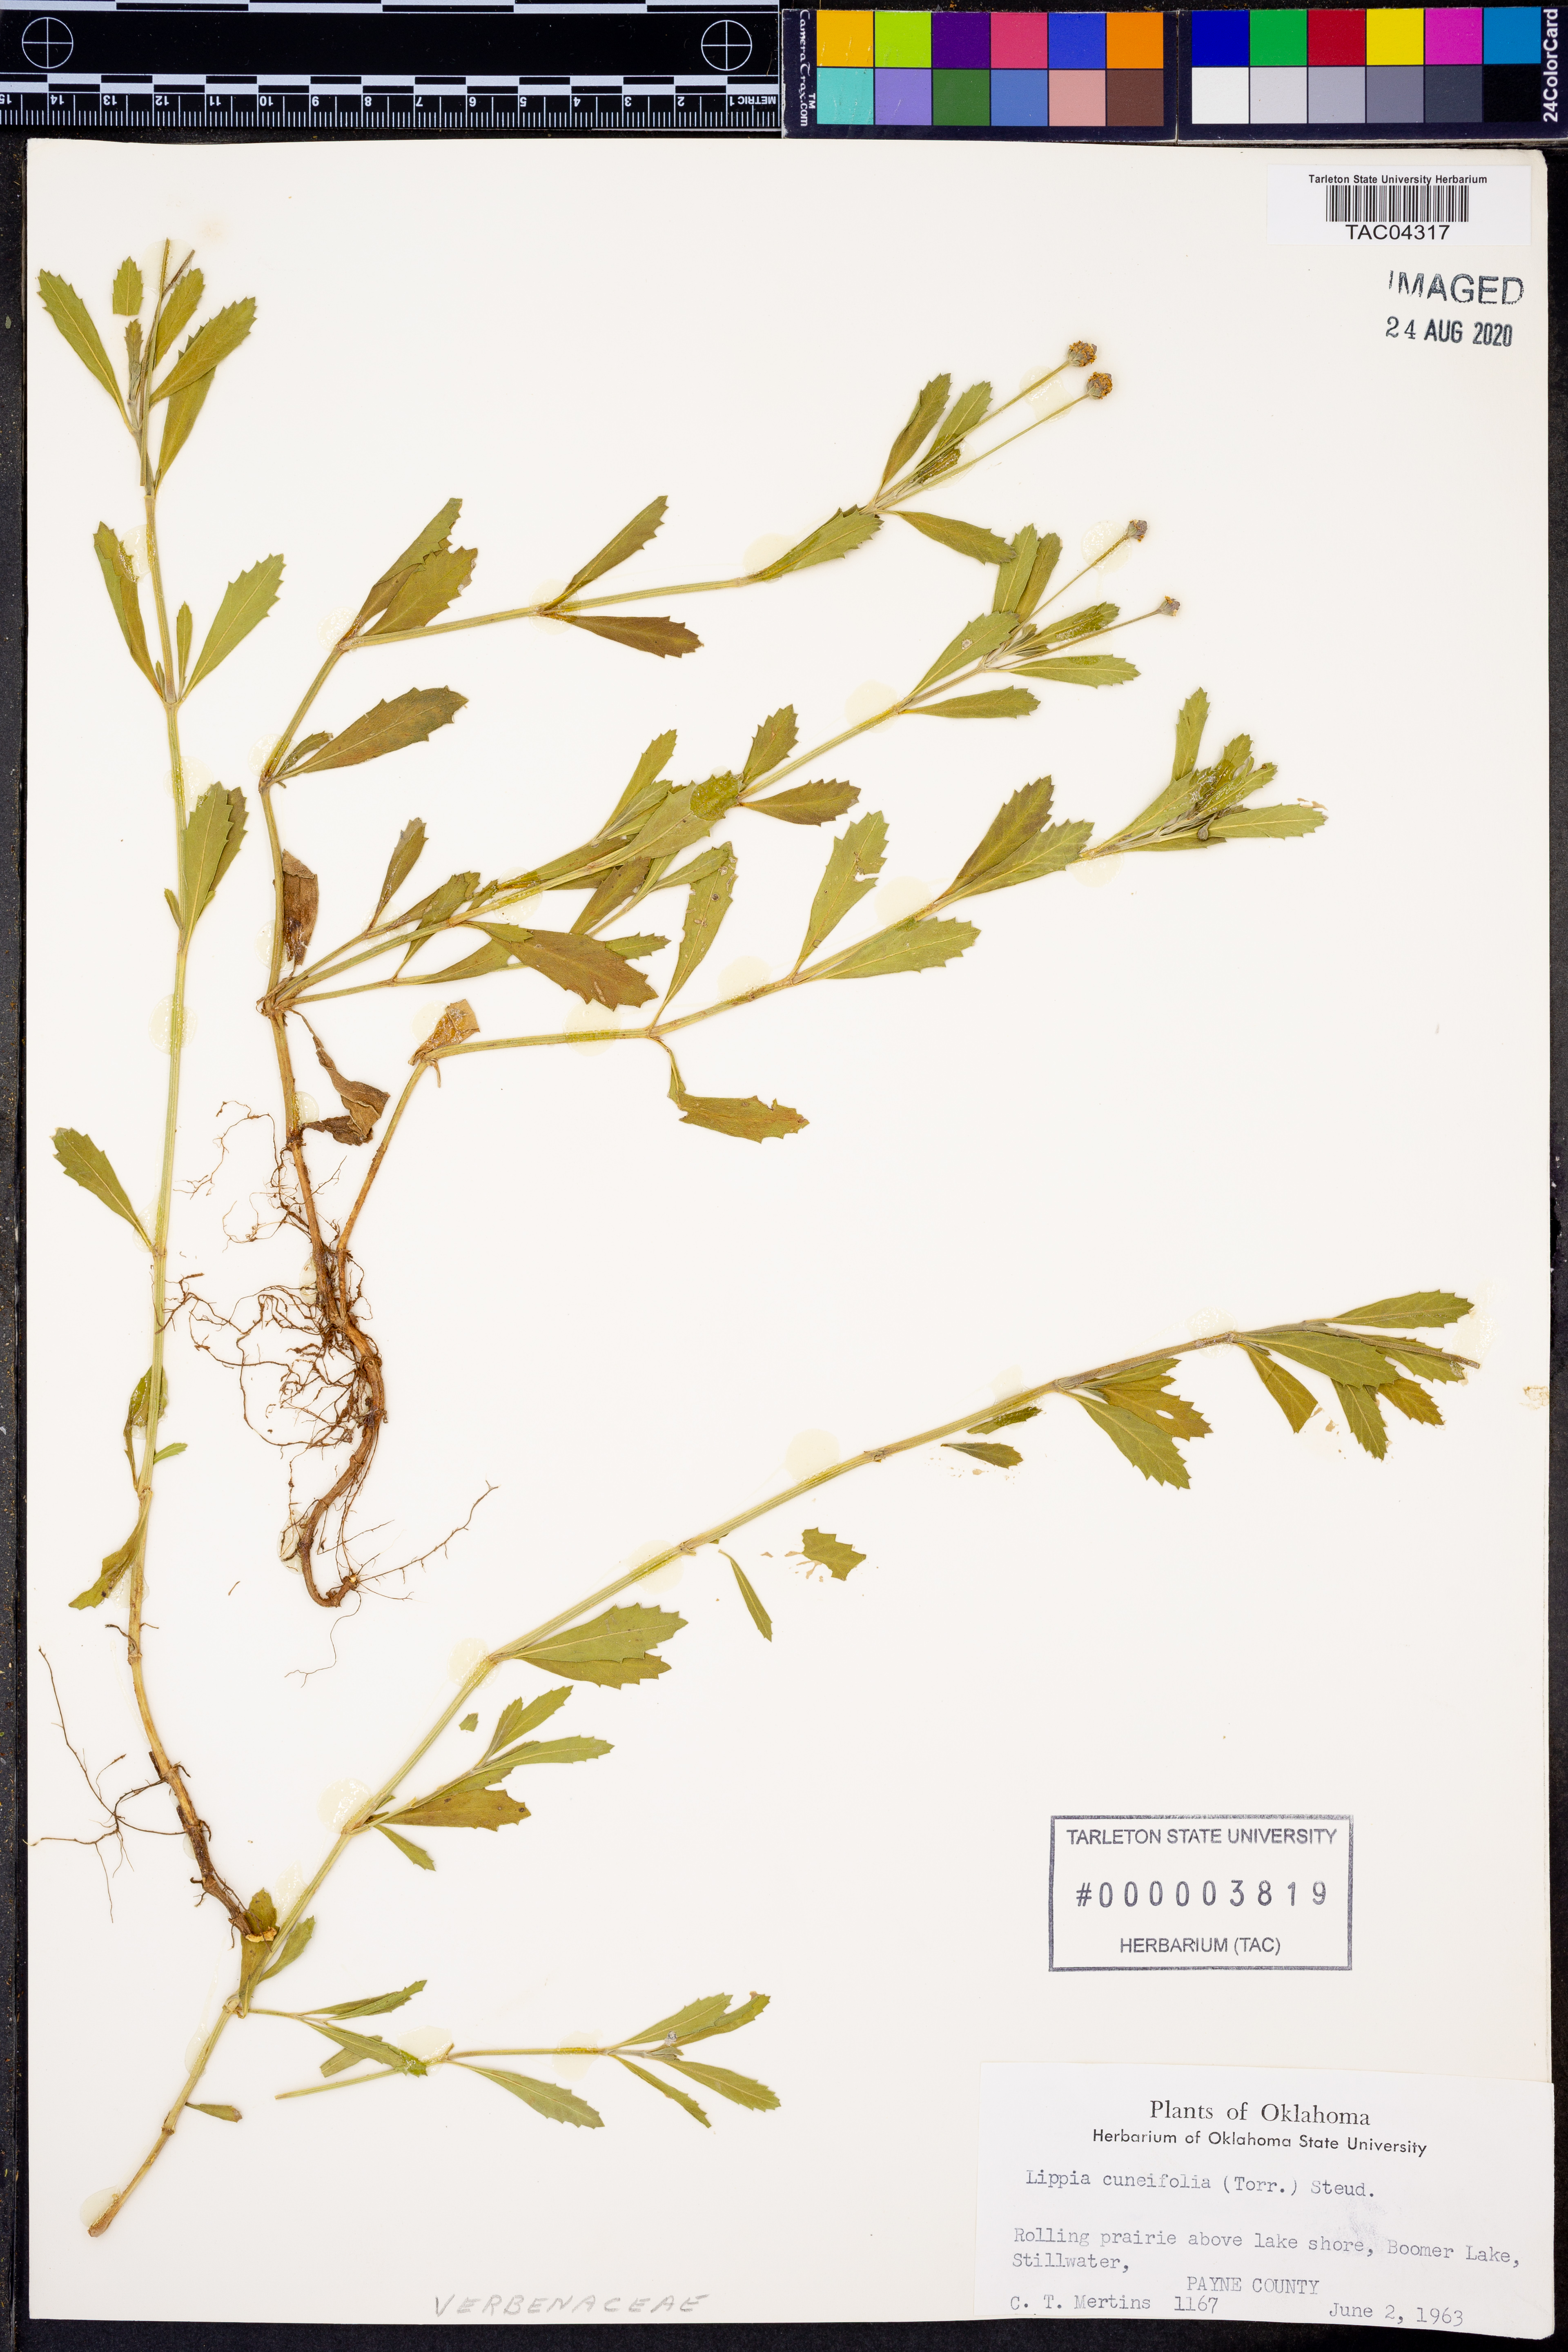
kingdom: Plantae
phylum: Tracheophyta
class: Magnoliopsida
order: Lamiales
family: Verbenaceae
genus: Phyla
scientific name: Phyla cuneifolia
